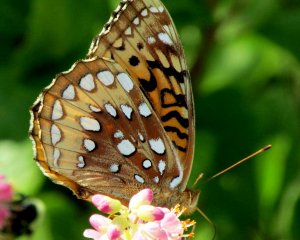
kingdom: Animalia
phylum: Arthropoda
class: Insecta
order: Lepidoptera
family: Nymphalidae
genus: Speyeria
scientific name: Speyeria cybele
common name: Great Spangled Fritillary
